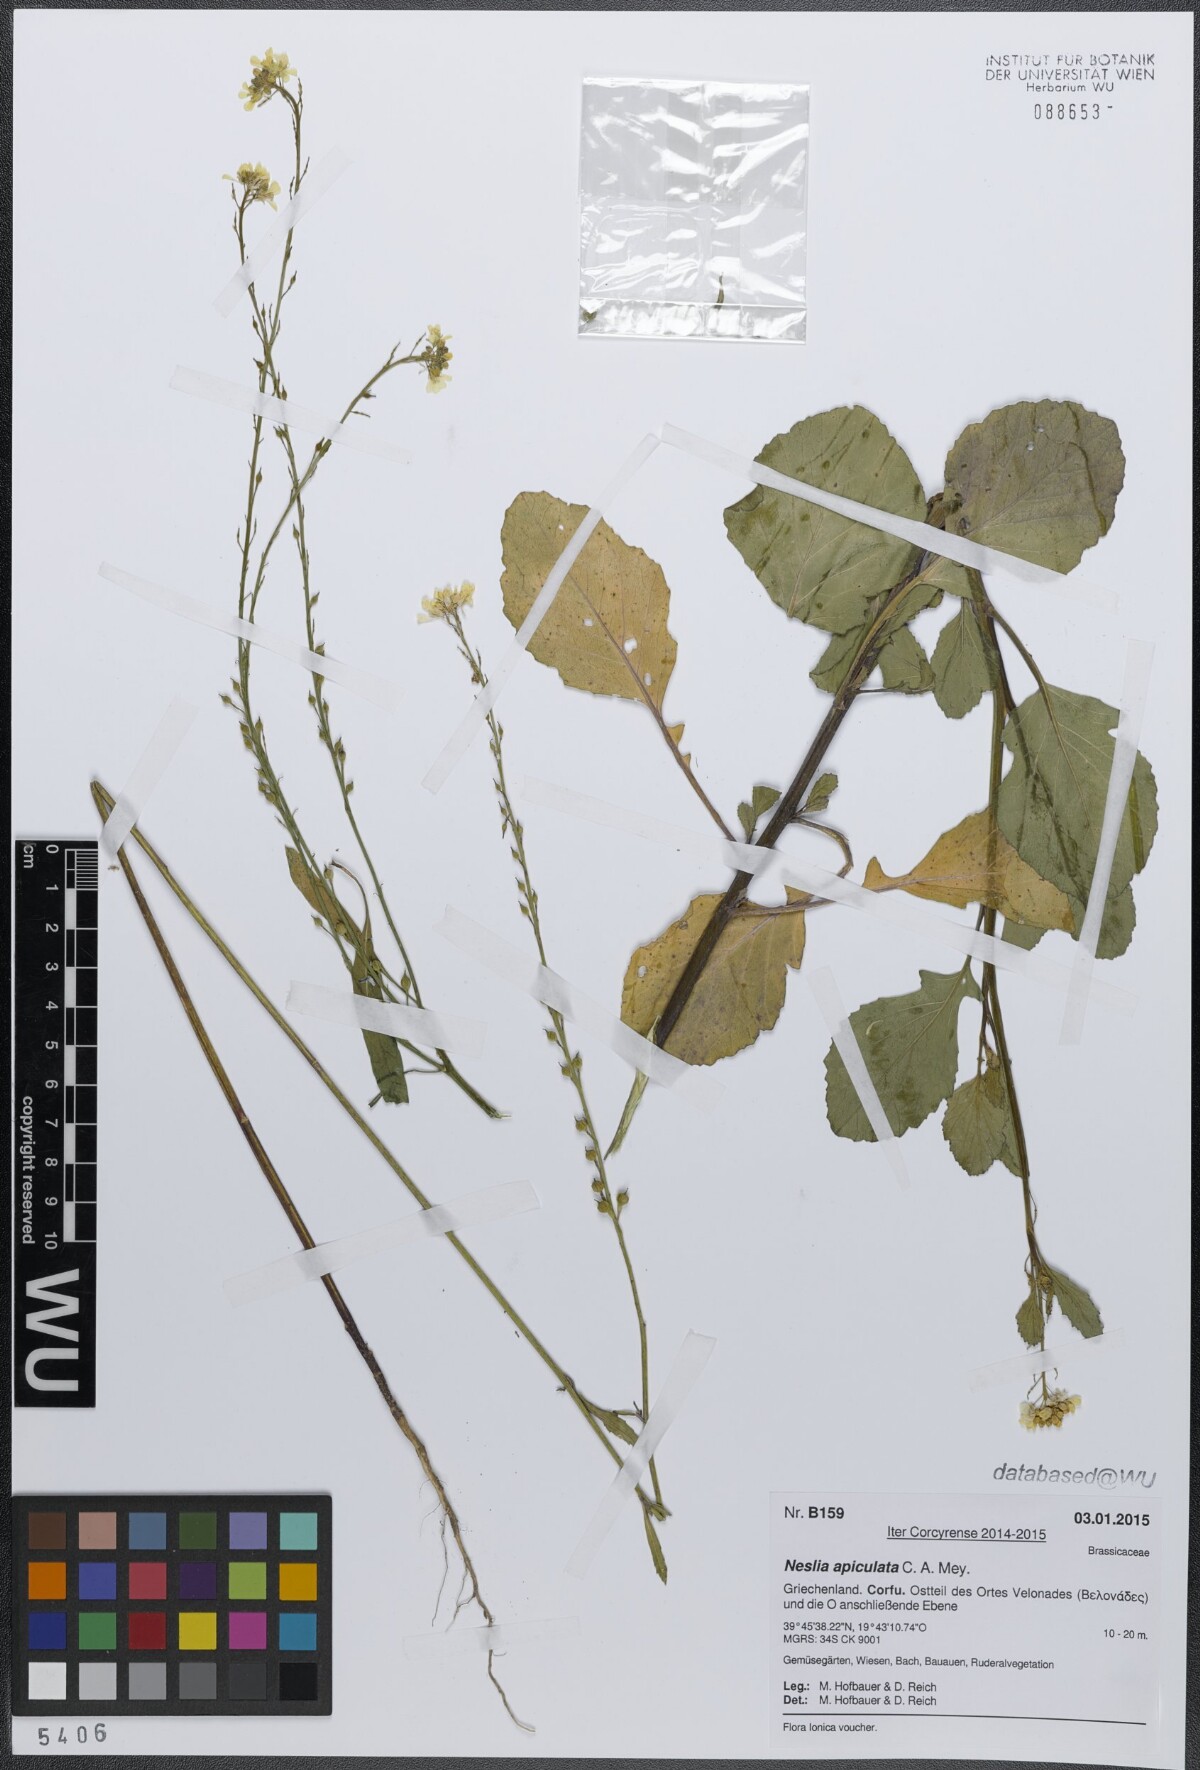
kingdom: Plantae
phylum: Tracheophyta
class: Magnoliopsida
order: Brassicales
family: Brassicaceae
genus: Rapistrum
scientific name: Rapistrum rugosum
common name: Annual bastardcabbage
